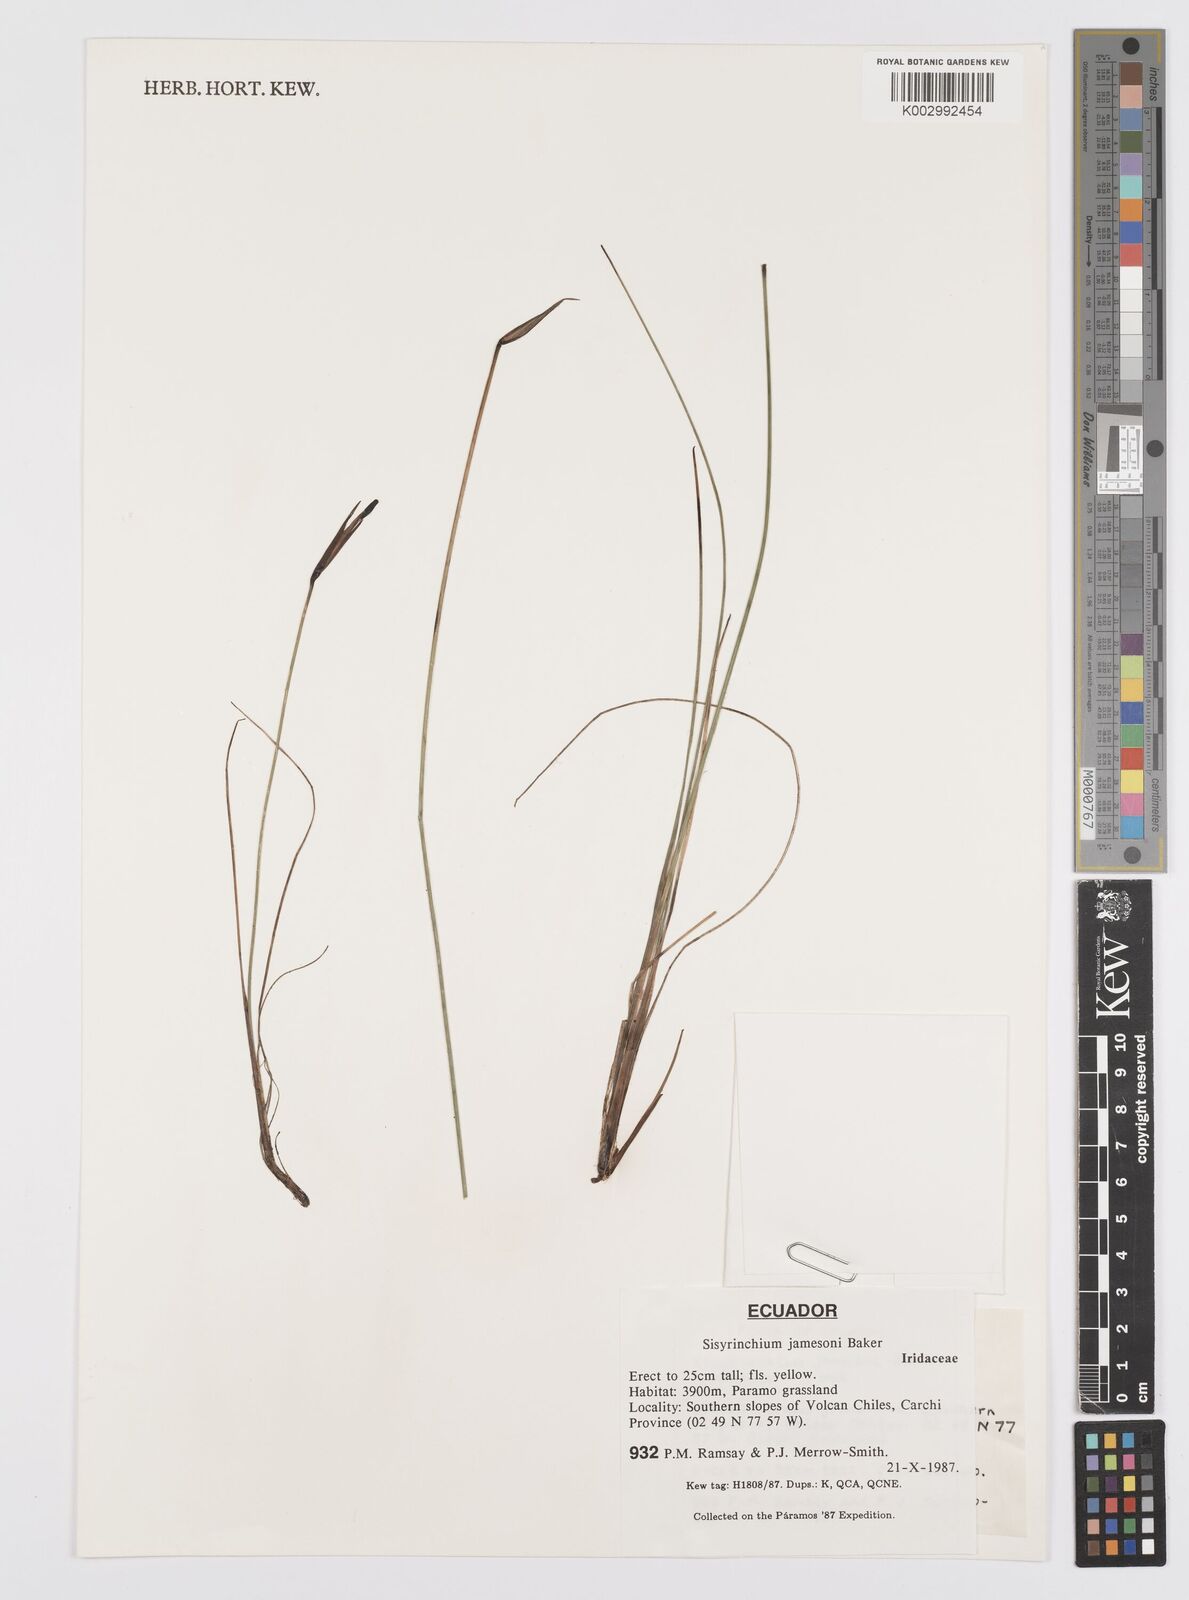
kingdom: Plantae
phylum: Tracheophyta
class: Liliopsida
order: Asparagales
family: Iridaceae
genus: Sisyrinchium
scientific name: Sisyrinchium jamesonii
